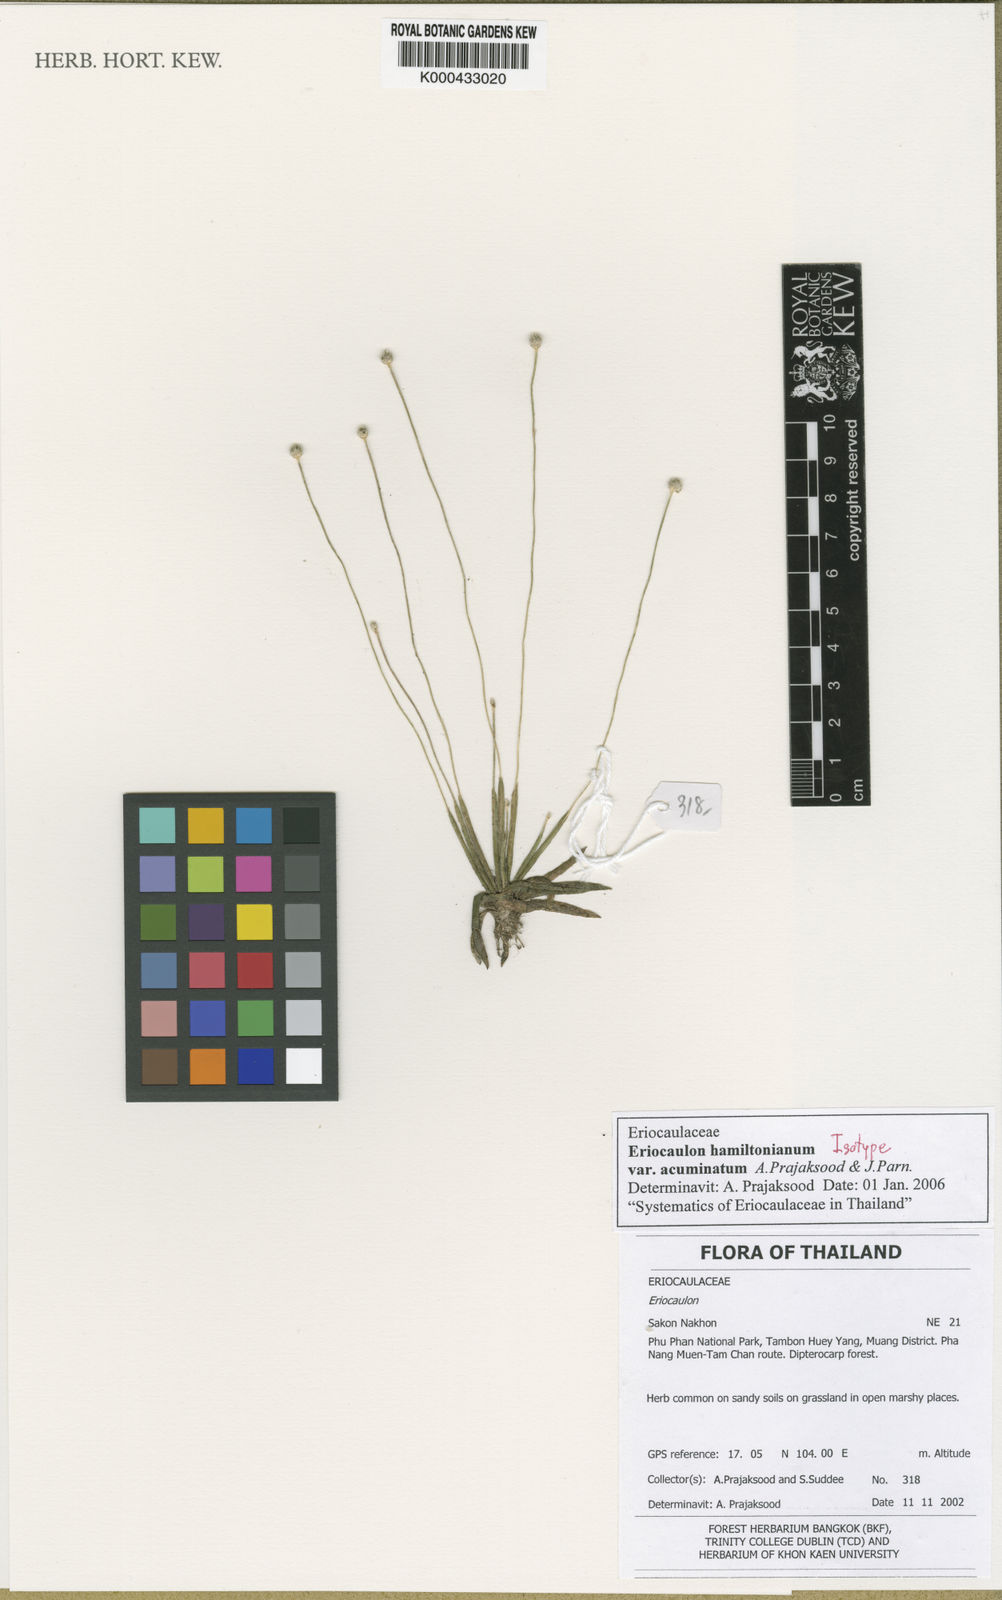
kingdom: Plantae
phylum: Tracheophyta
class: Liliopsida
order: Poales
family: Eriocaulaceae
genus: Eriocaulon
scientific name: Eriocaulon soucherei
